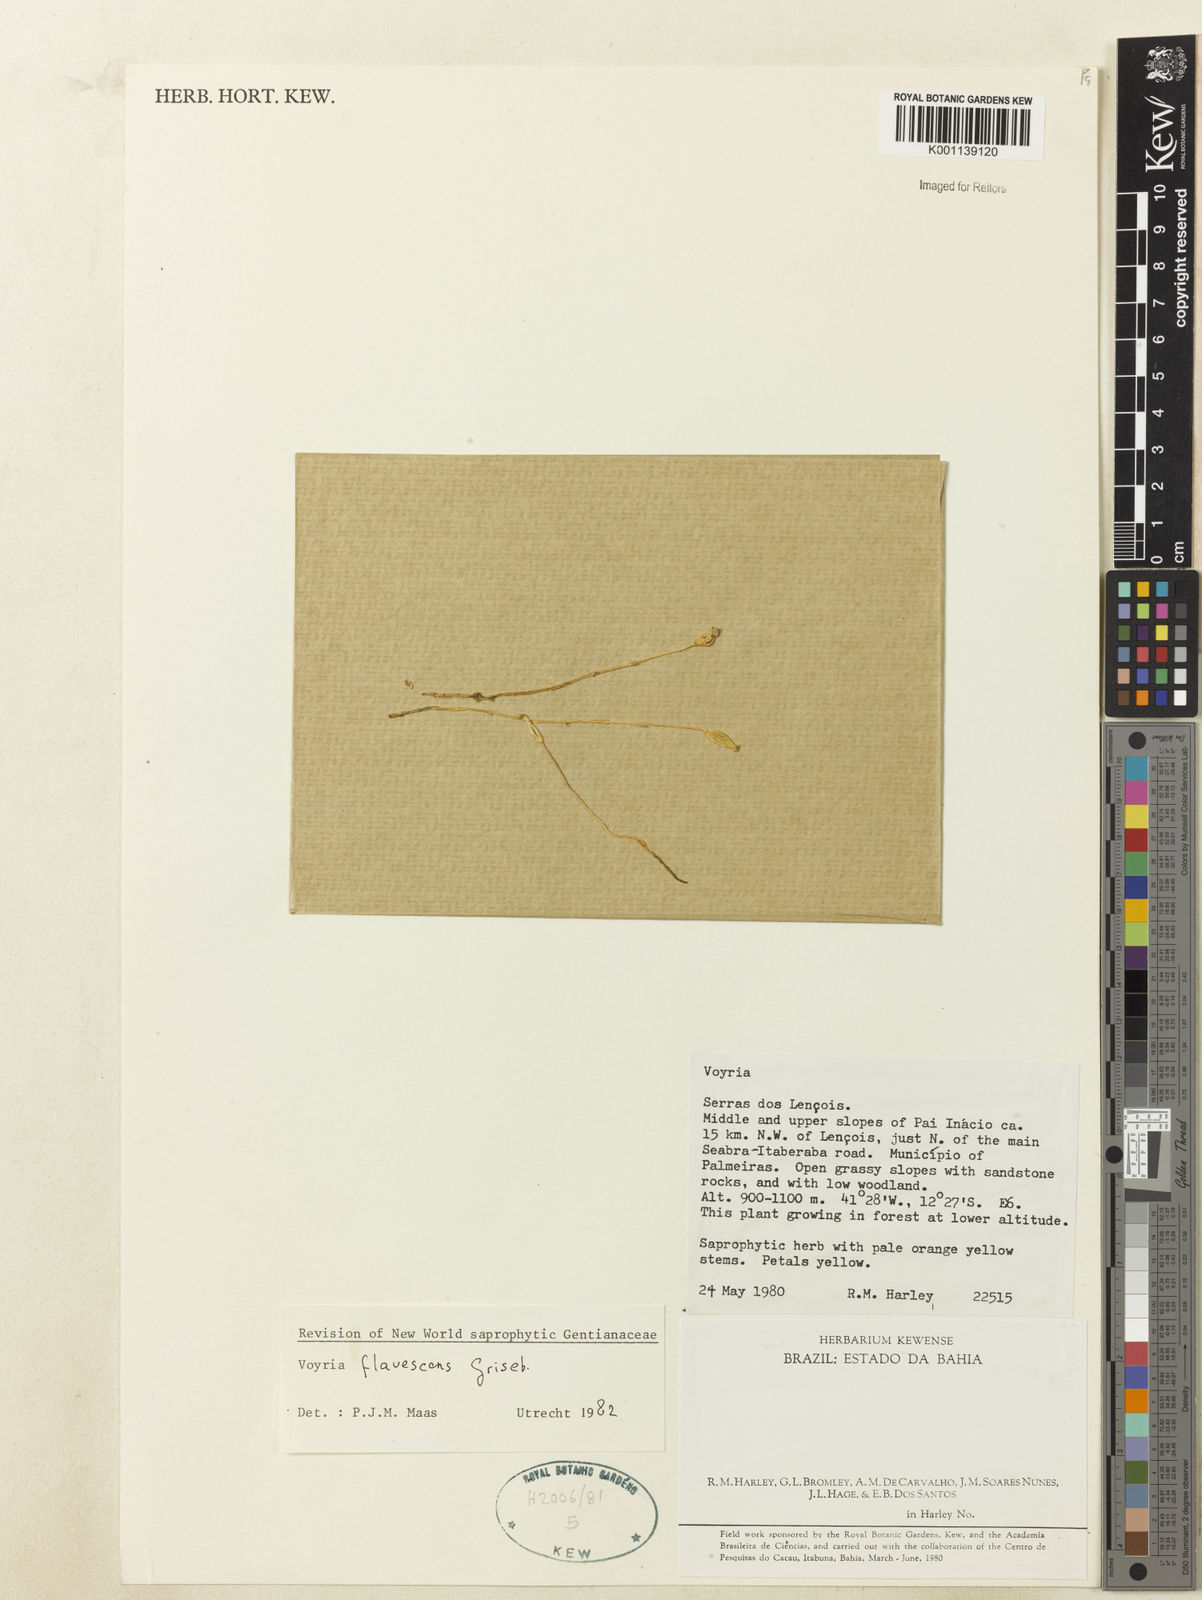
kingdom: Plantae
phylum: Tracheophyta
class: Magnoliopsida
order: Gentianales
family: Gentianaceae
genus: Voyria
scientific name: Voyria flavescens
